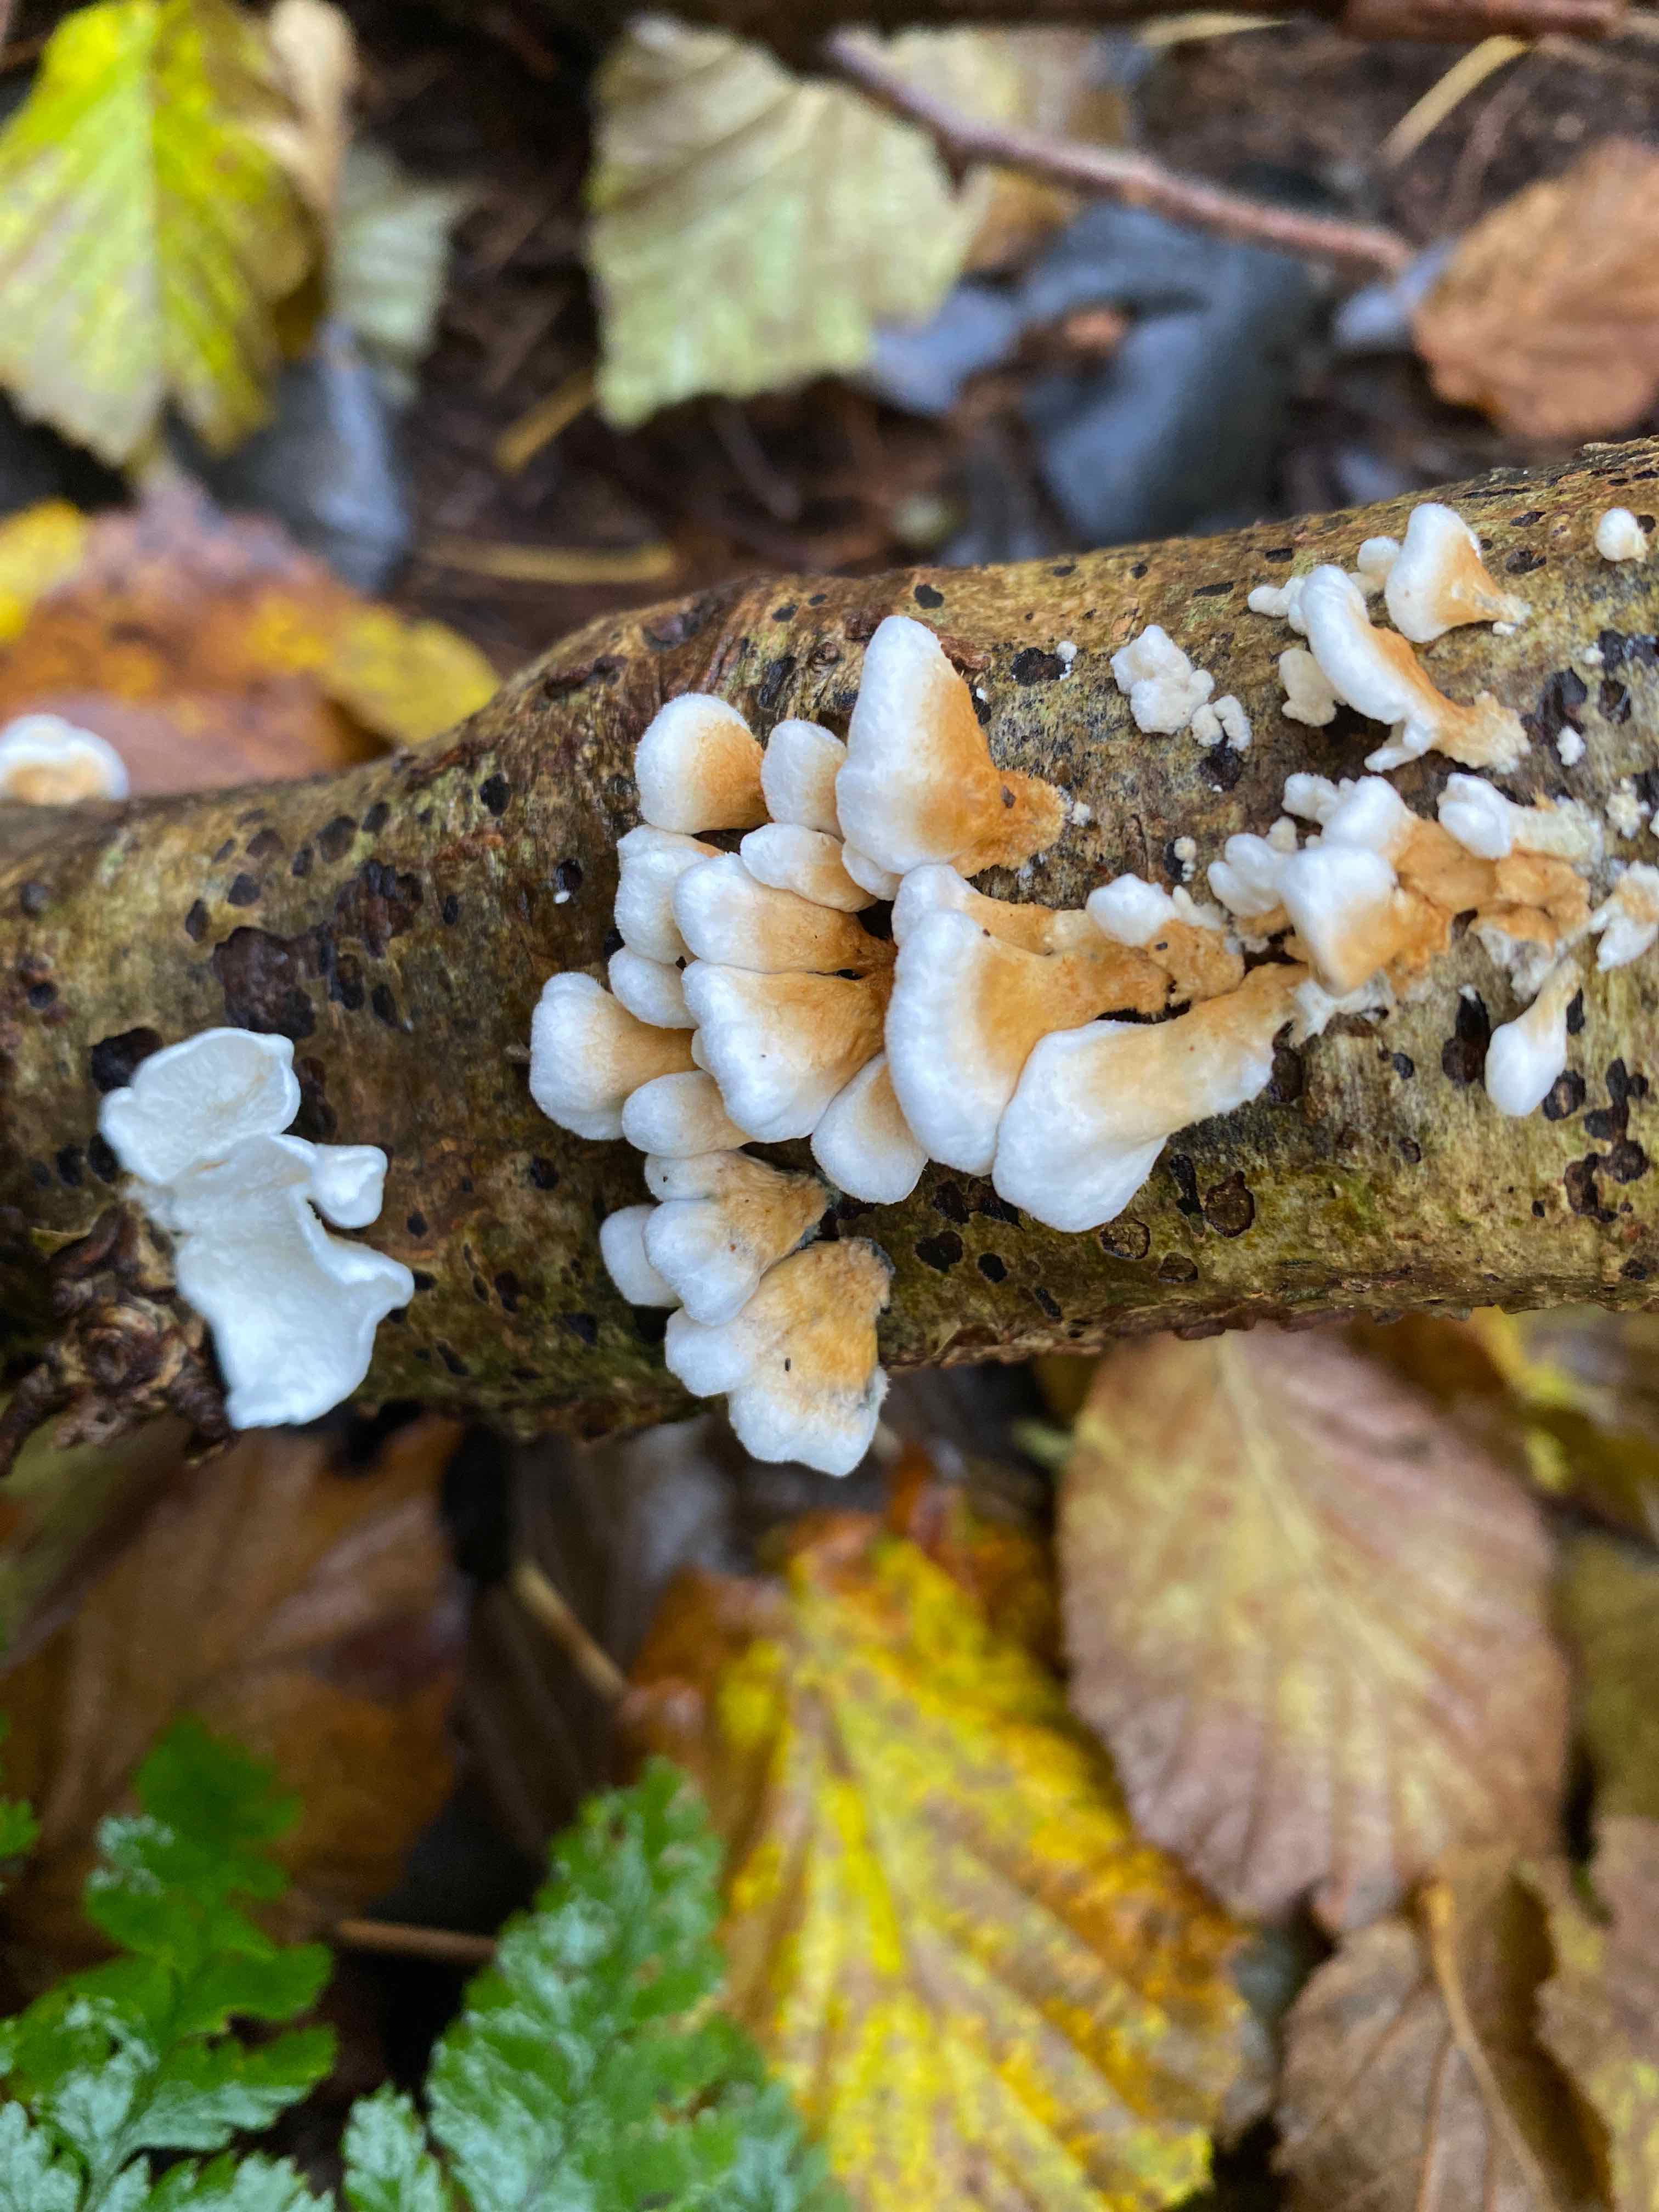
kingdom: Fungi
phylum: Basidiomycota
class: Agaricomycetes
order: Amylocorticiales
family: Amylocorticiaceae
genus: Plicaturopsis
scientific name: Plicaturopsis crispa
